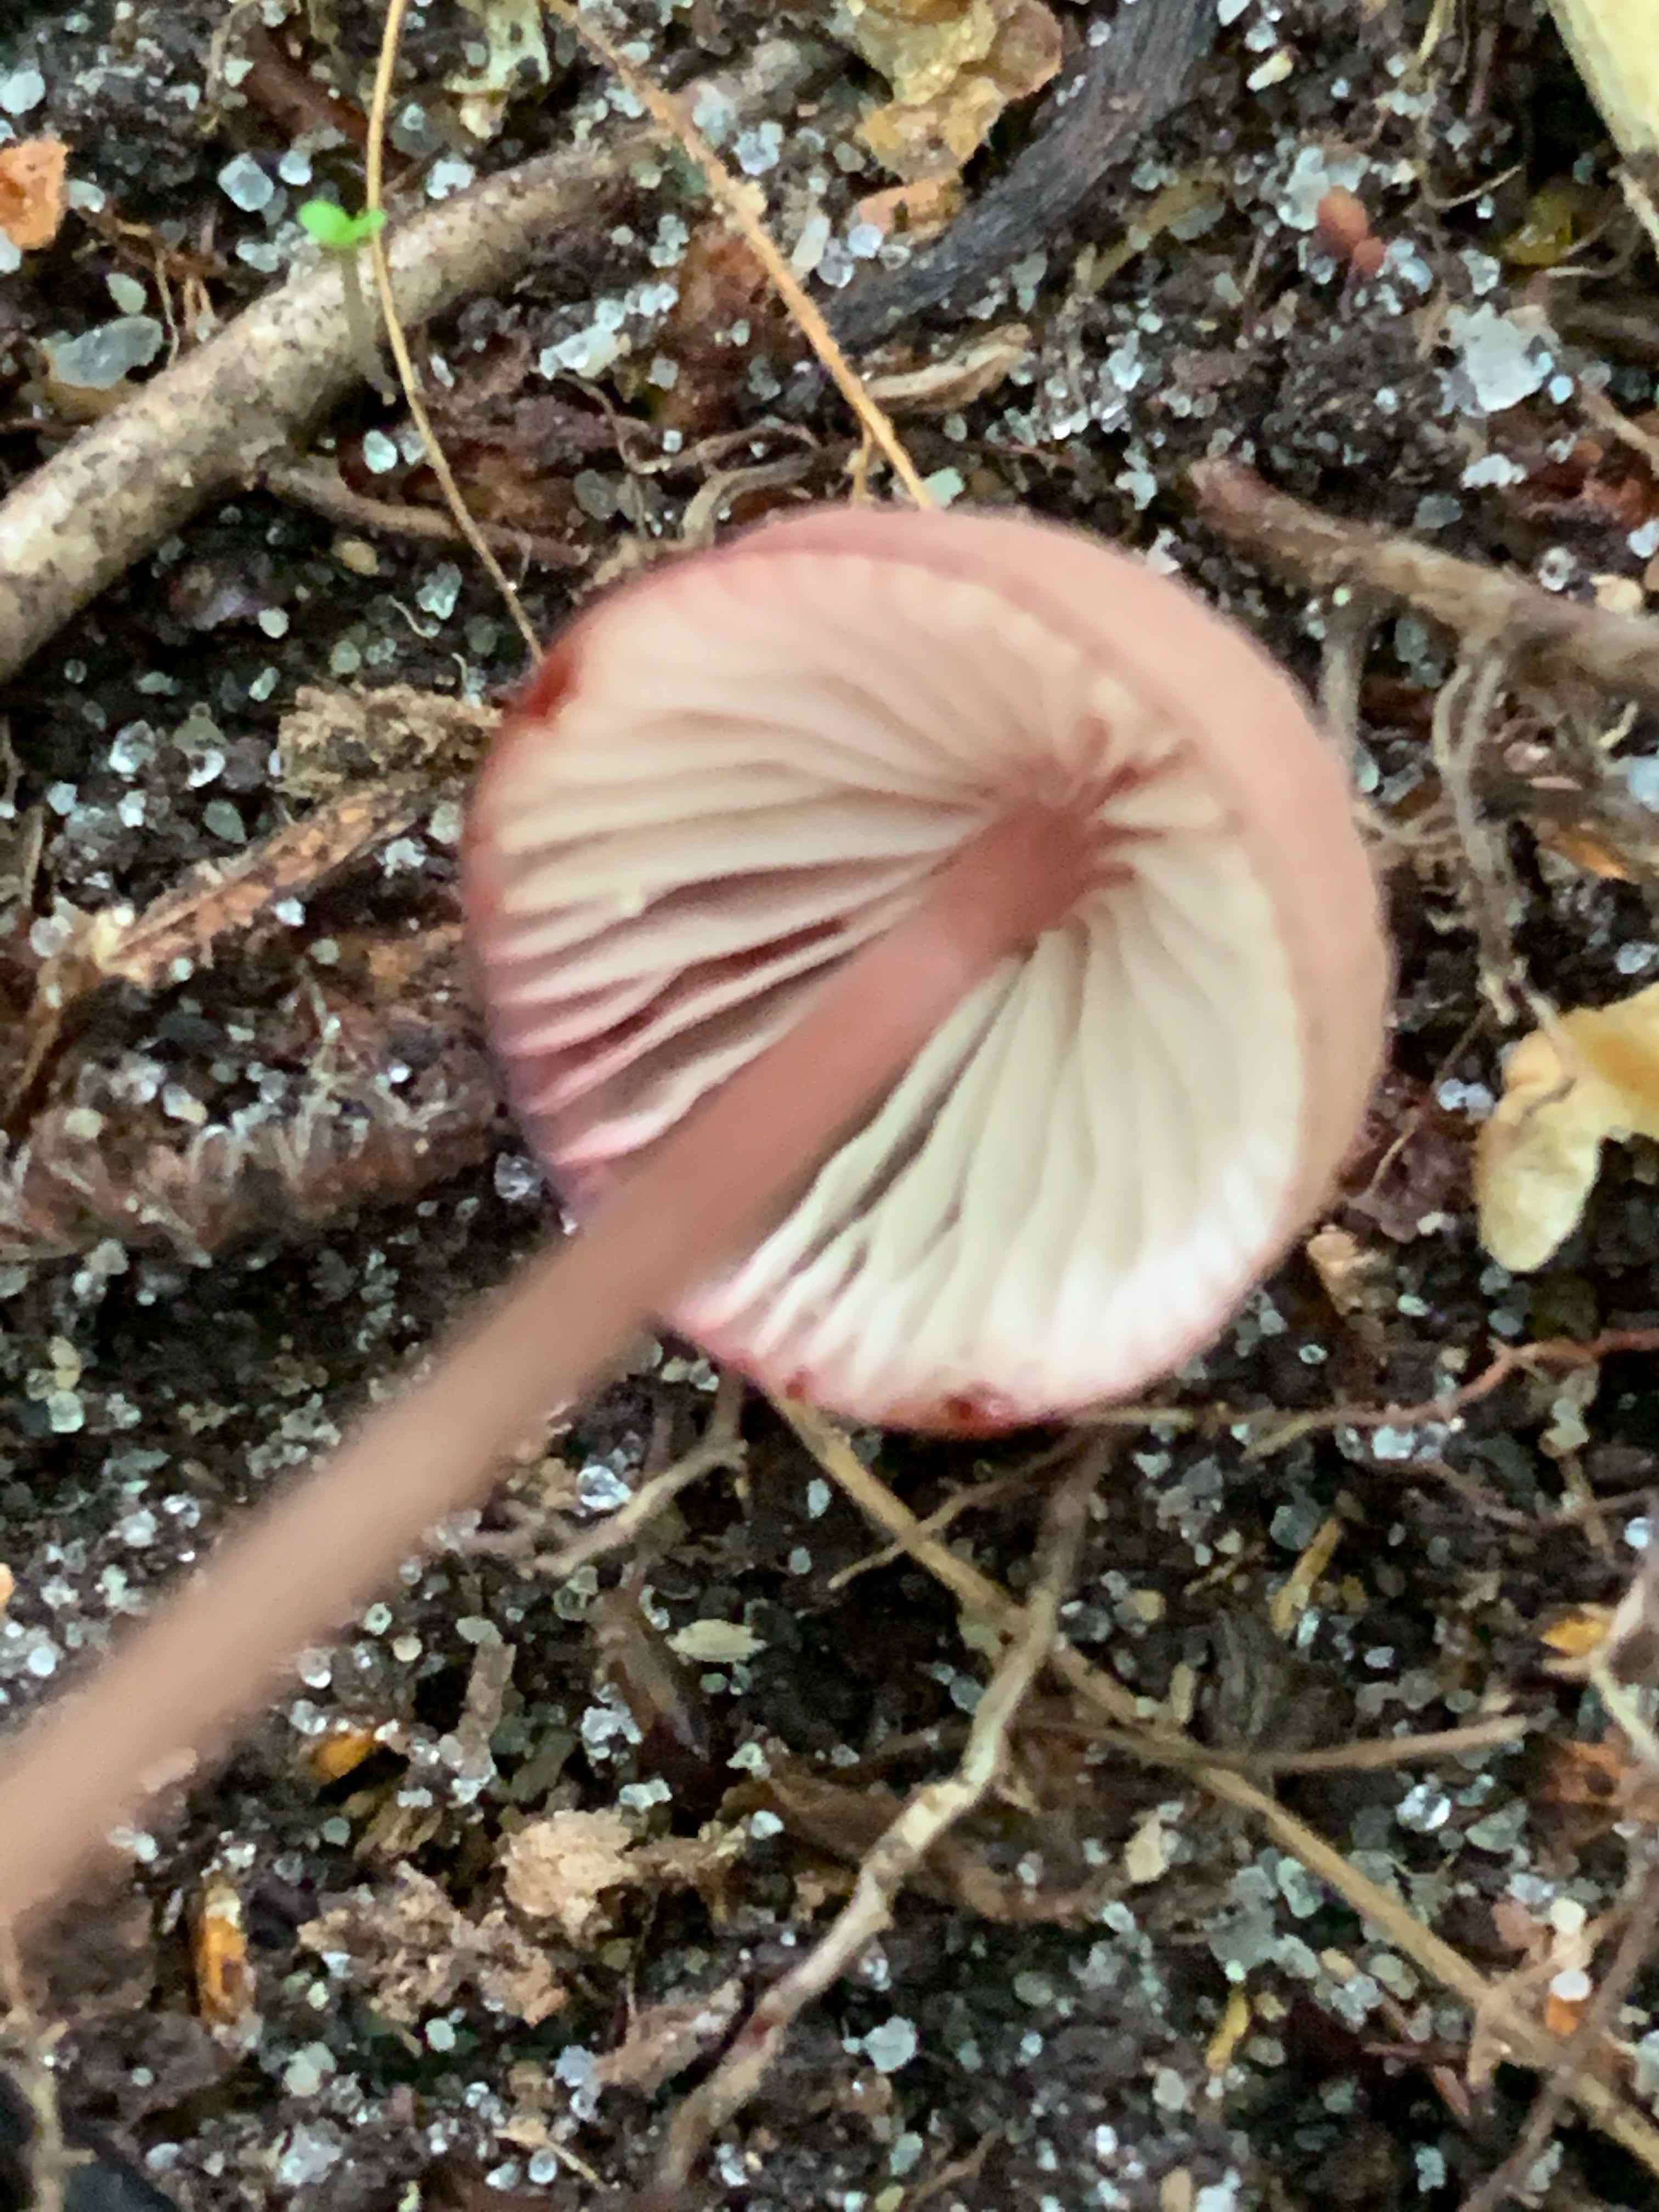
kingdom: Fungi
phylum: Basidiomycota
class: Agaricomycetes
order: Agaricales
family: Mycenaceae
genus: Mycena
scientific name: Mycena haematopus
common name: blødende huesvamp
